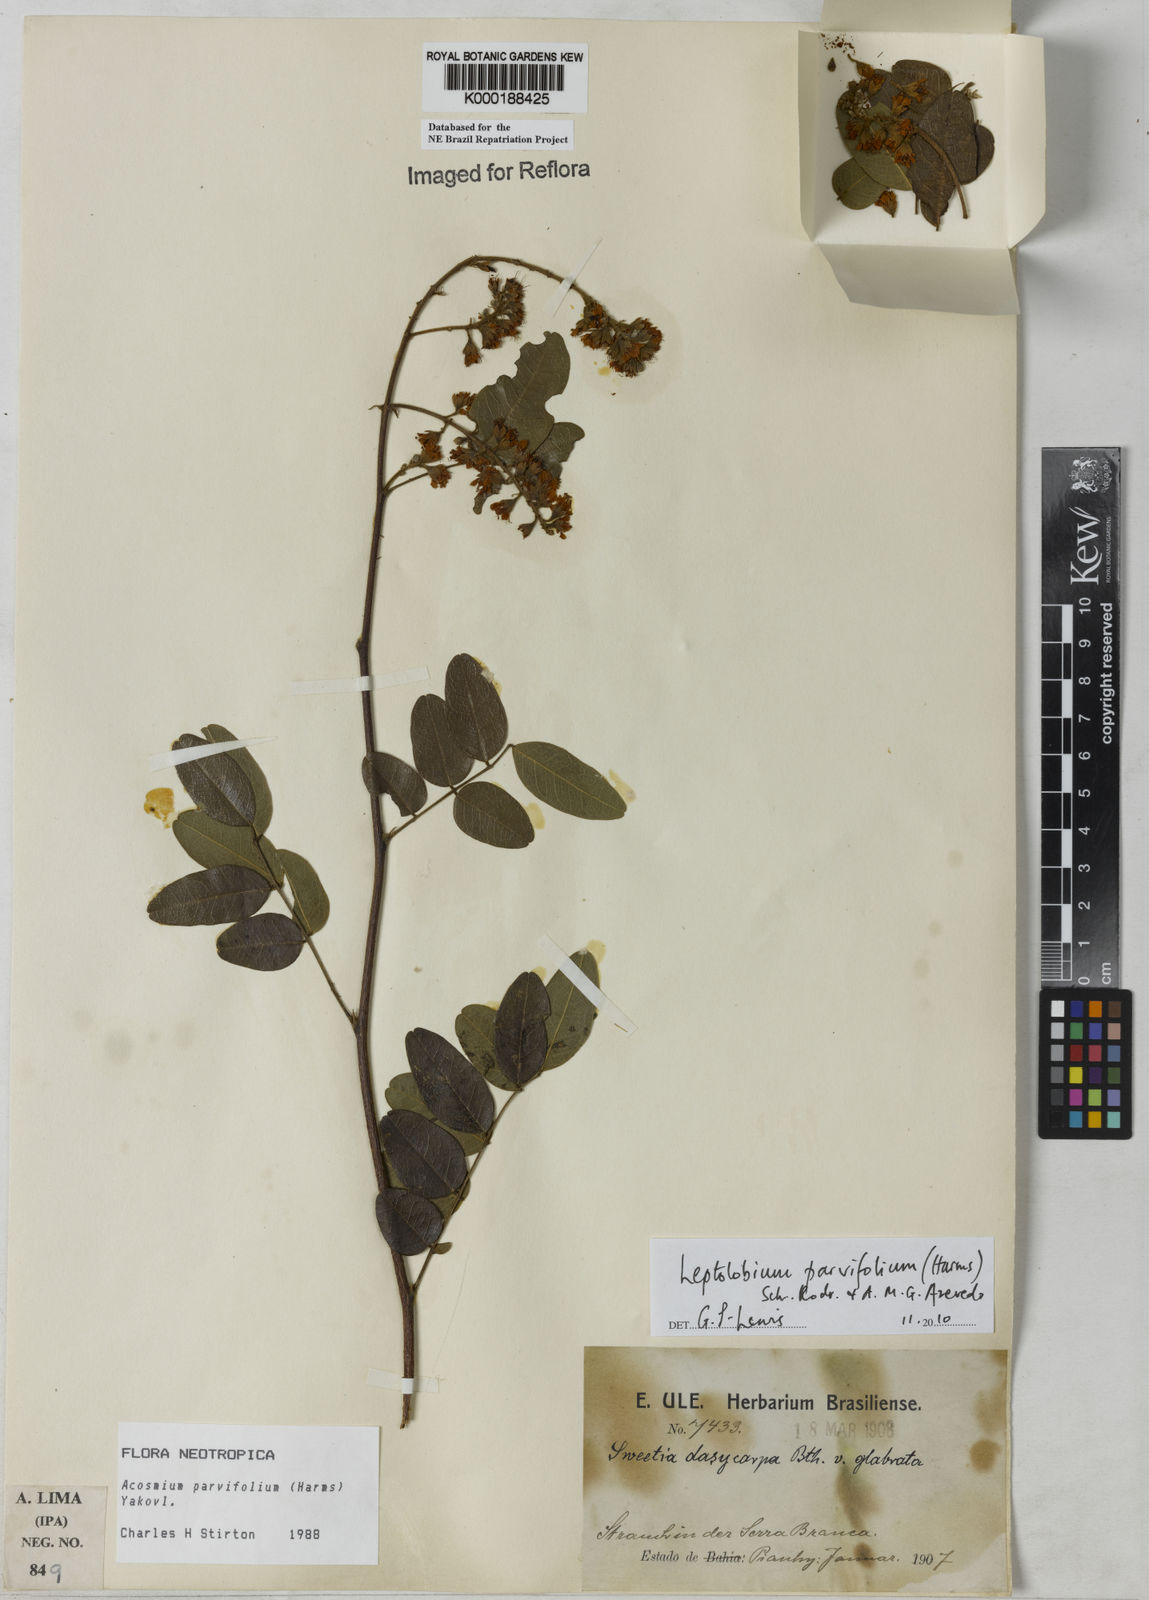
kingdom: Plantae
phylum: Tracheophyta
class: Magnoliopsida
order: Fabales
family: Fabaceae
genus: Leptolobium
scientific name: Leptolobium parvifolium
